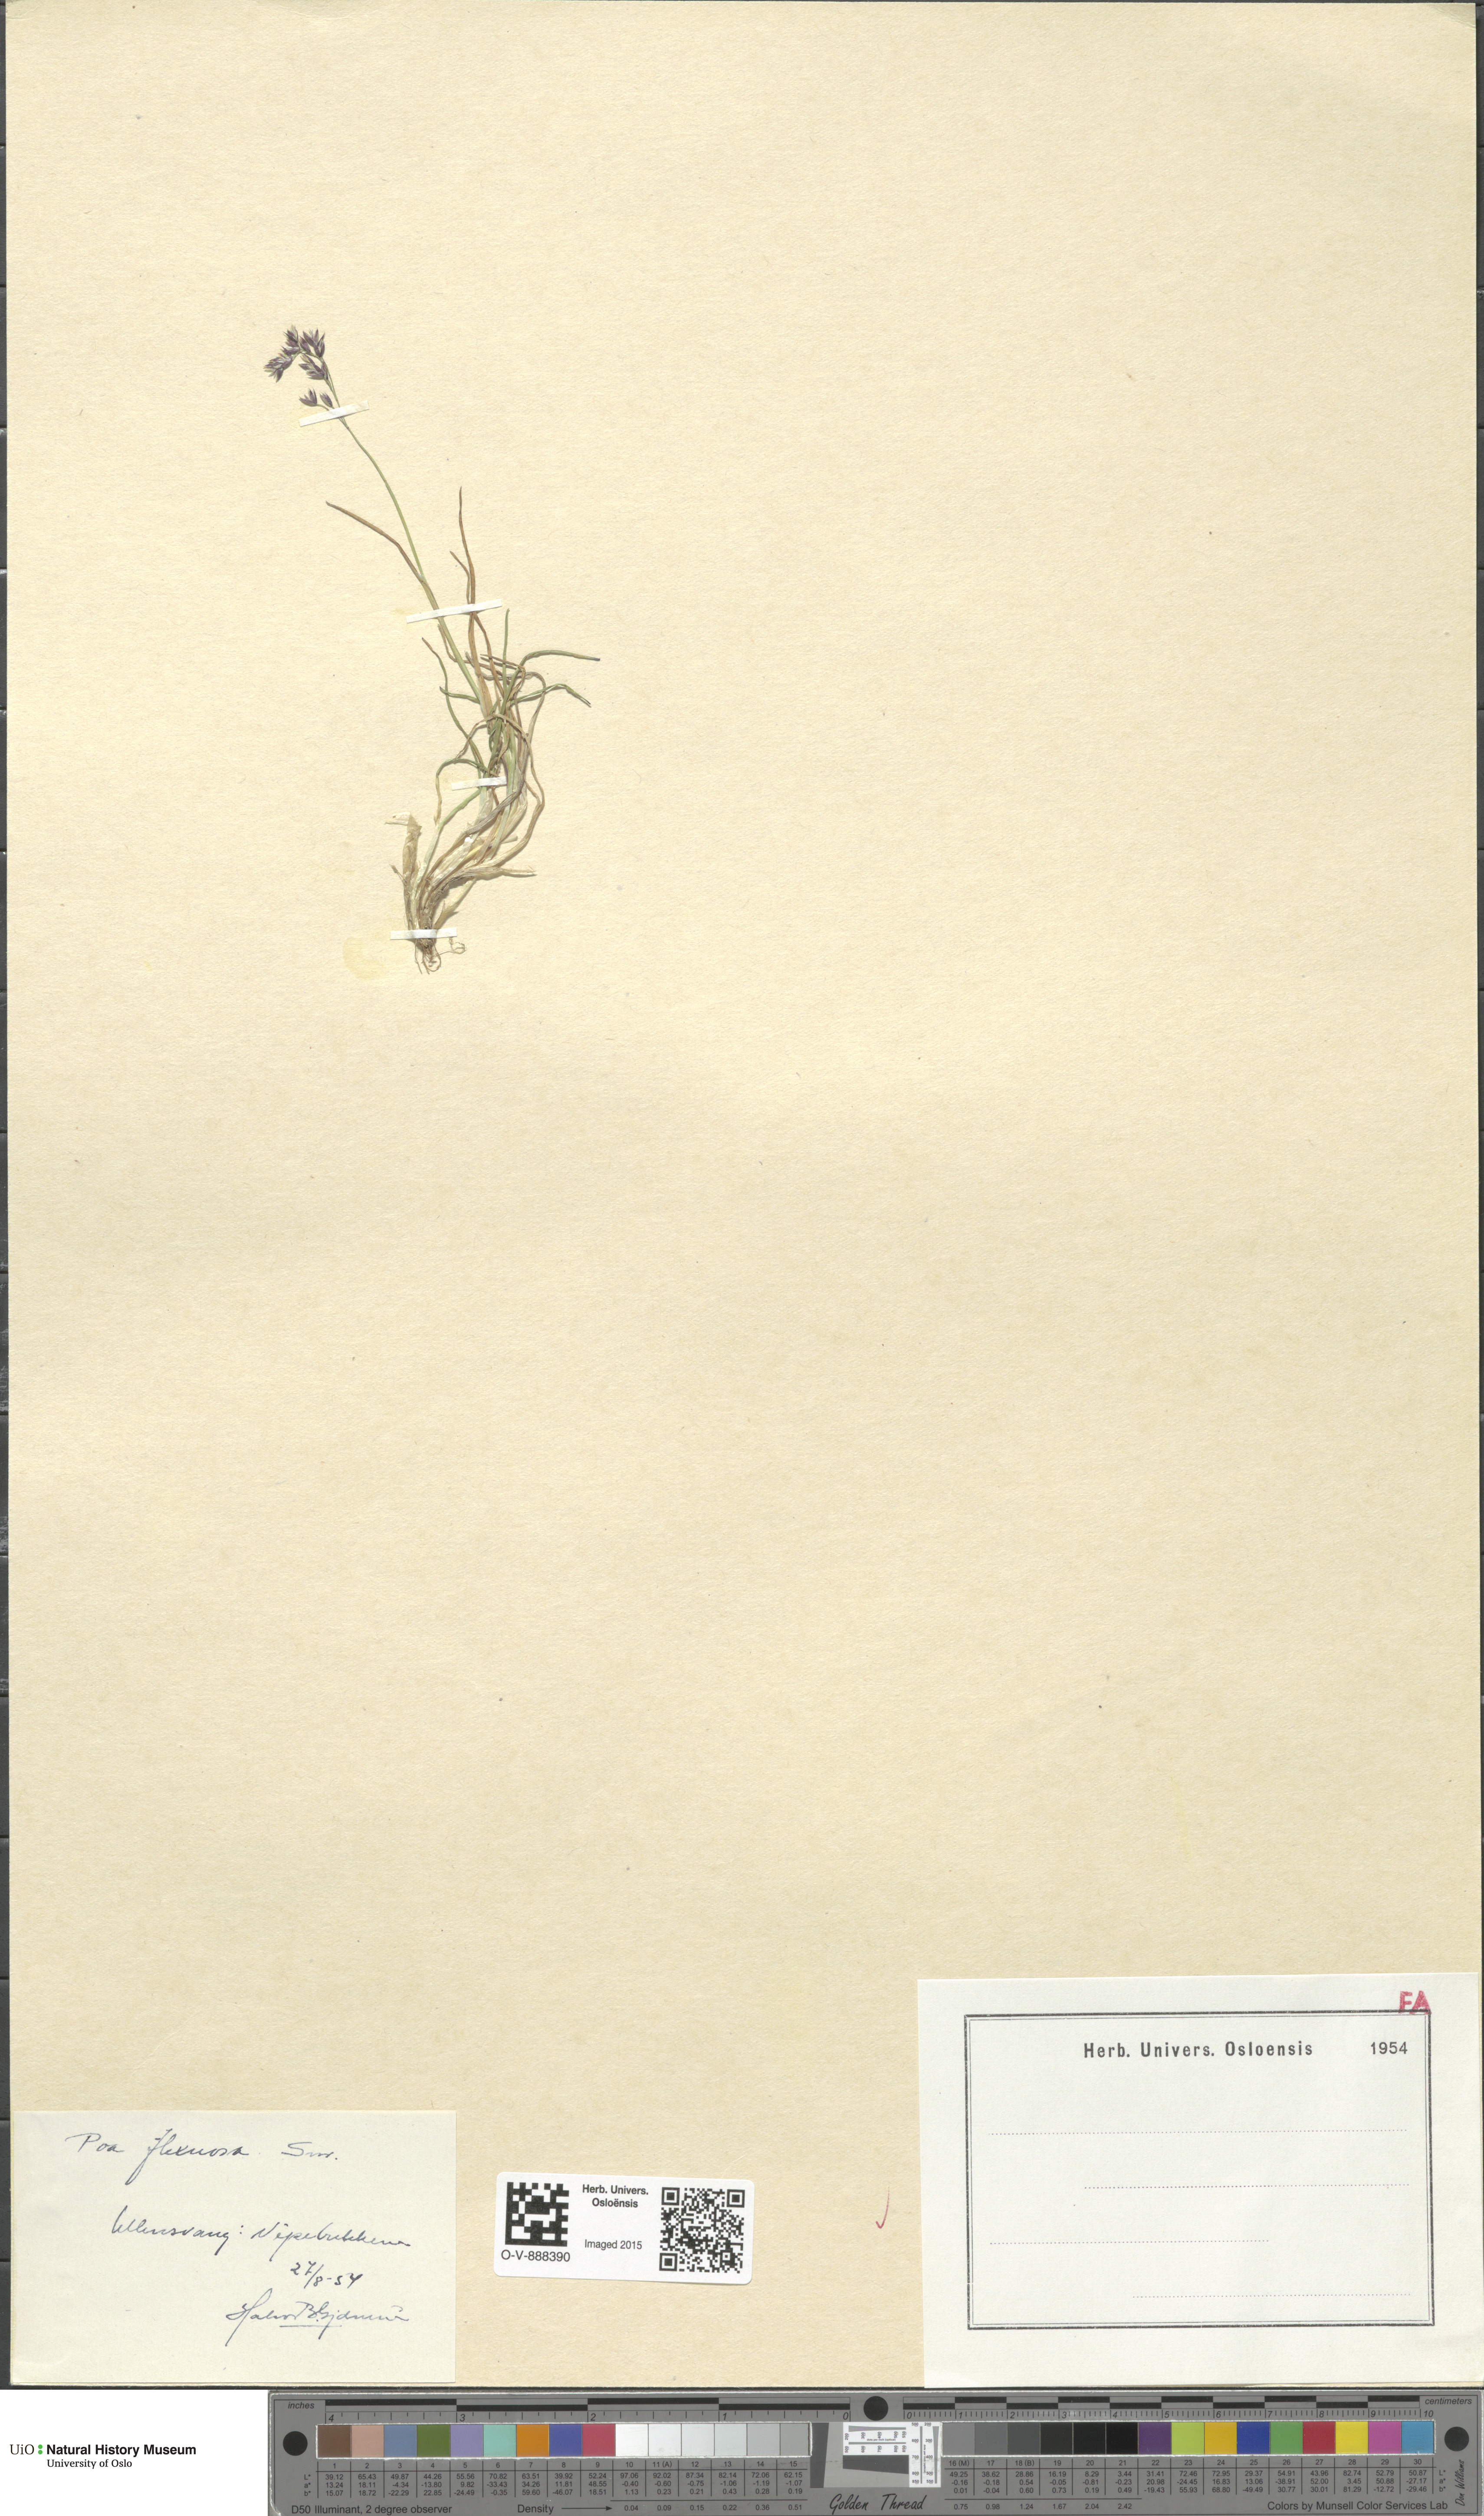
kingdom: Plantae
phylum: Tracheophyta
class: Liliopsida
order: Poales
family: Poaceae
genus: Poa
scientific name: Poa flexuosa
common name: Wavy meadow-grass
